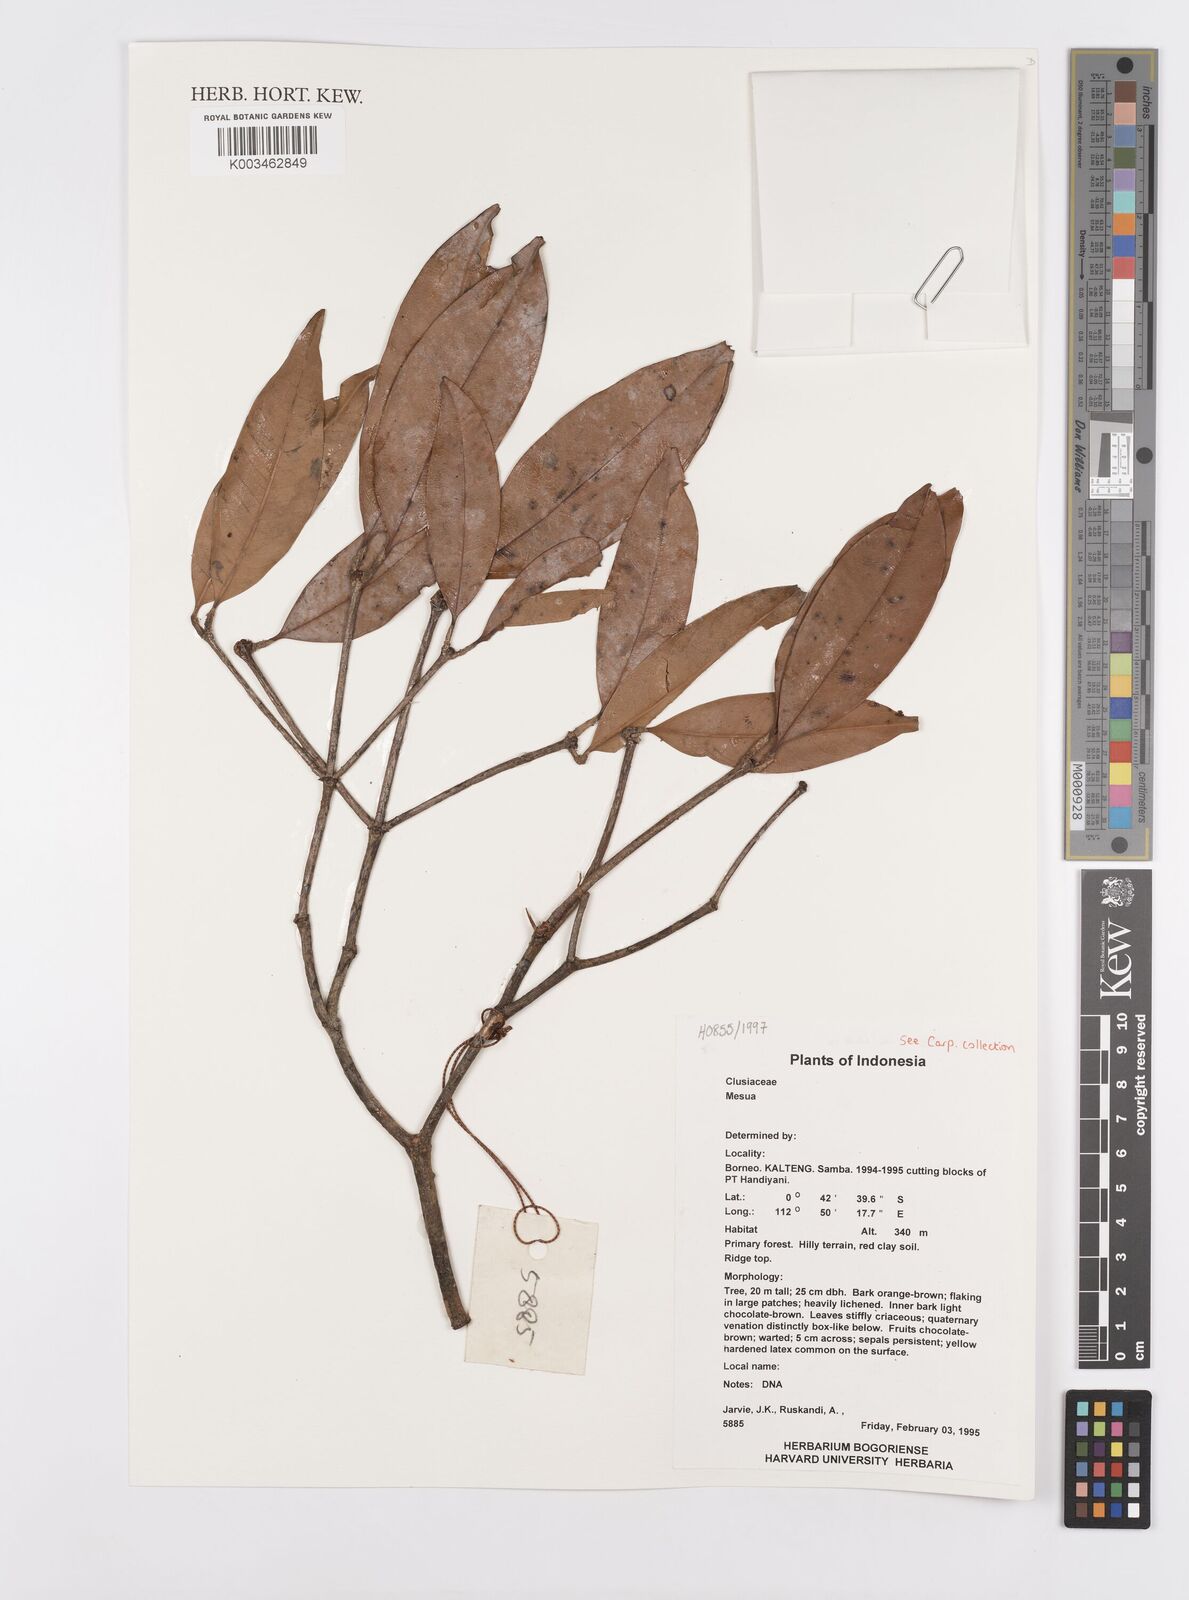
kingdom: Plantae
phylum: Tracheophyta
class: Magnoliopsida
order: Malpighiales
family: Calophyllaceae
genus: Mesua
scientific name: Mesua
